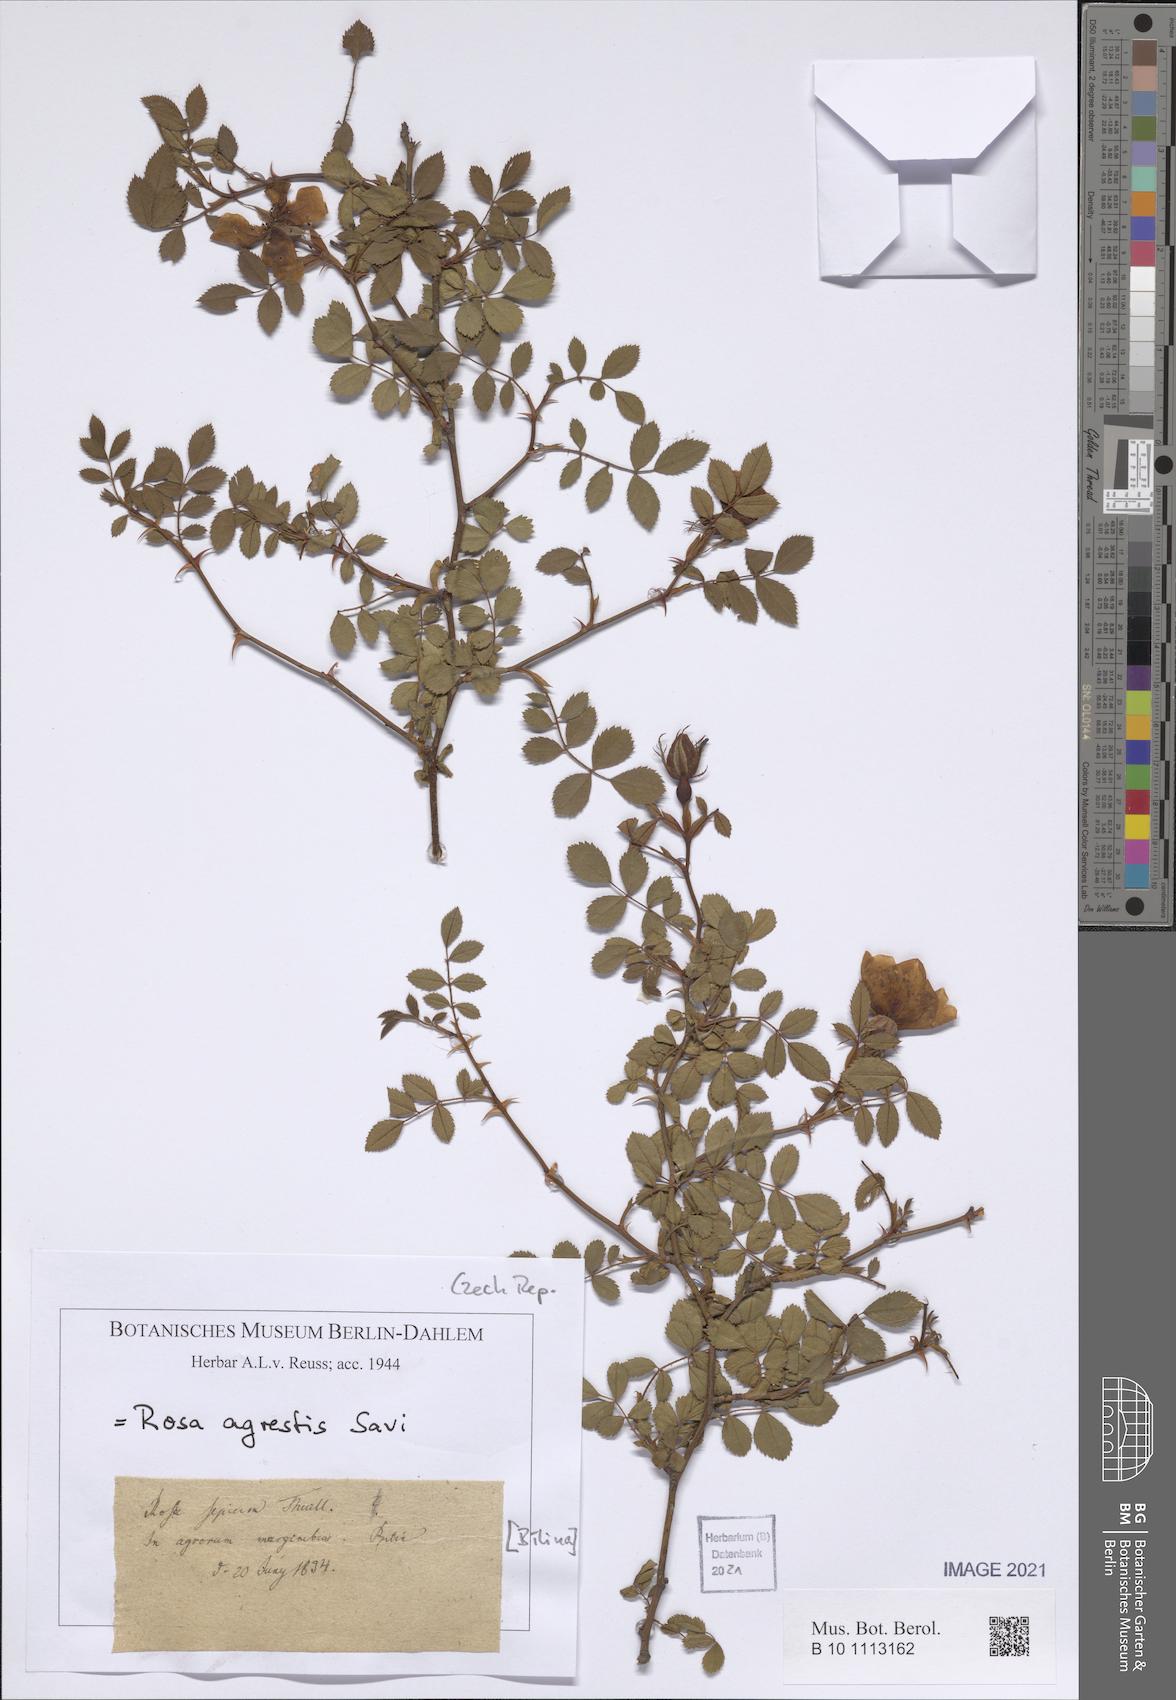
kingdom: Plantae
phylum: Tracheophyta
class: Magnoliopsida
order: Rosales
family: Rosaceae
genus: Rosa
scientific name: Rosa agrestis
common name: Fieldbriar
